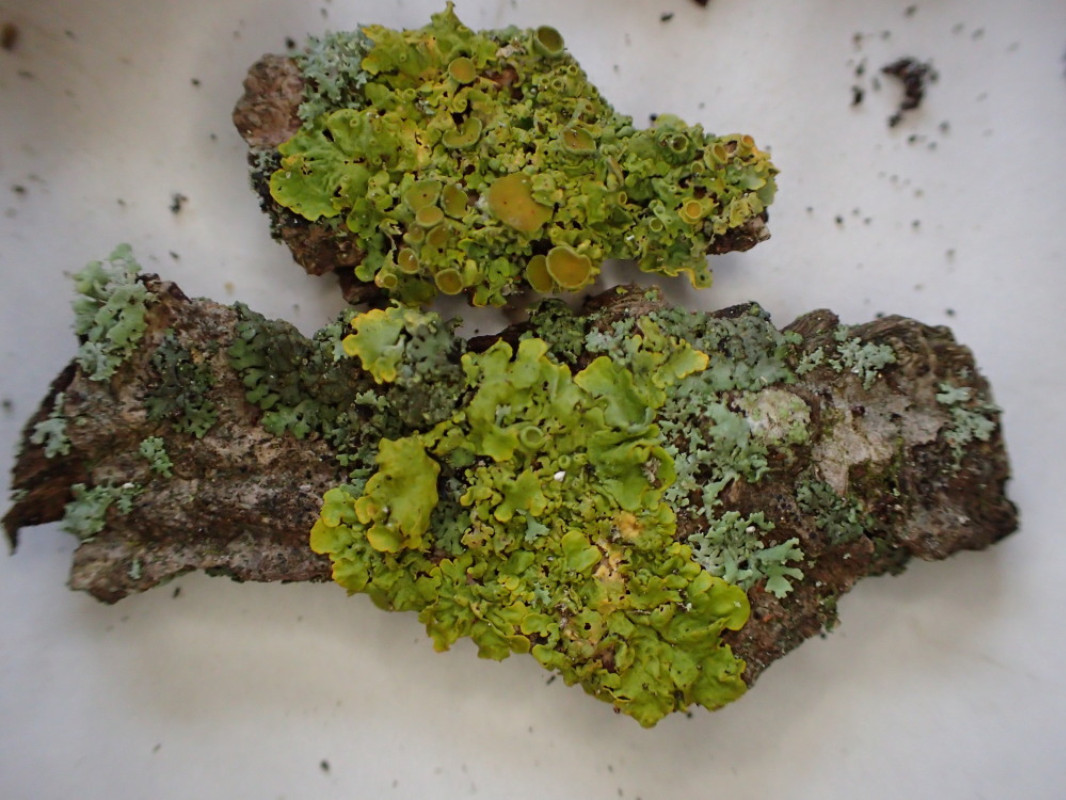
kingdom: Fungi
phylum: Ascomycota
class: Lecanoromycetes
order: Teloschistales
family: Teloschistaceae
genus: Xanthoria
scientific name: Xanthoria parietina
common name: almindelig væggelav
